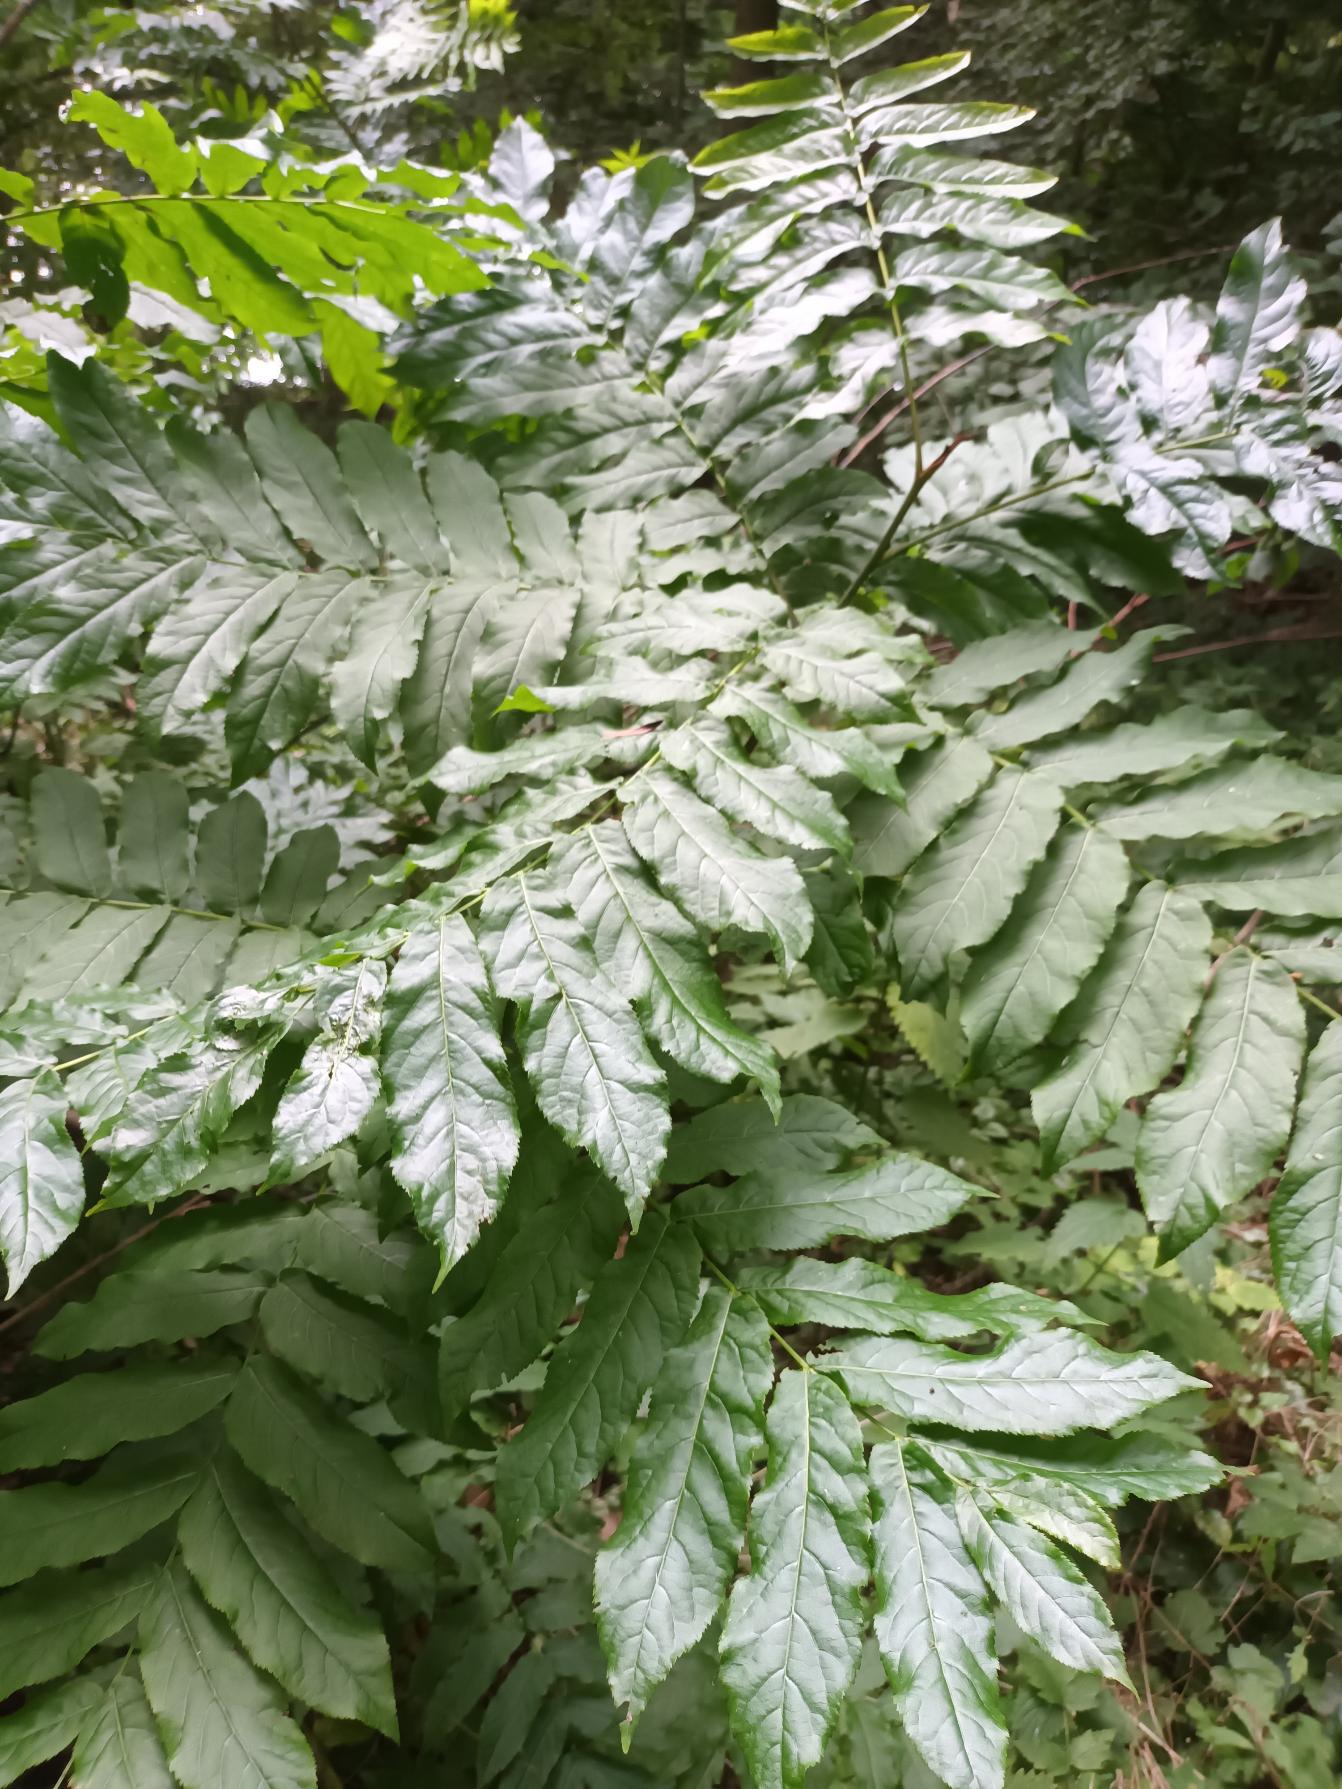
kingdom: Plantae
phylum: Tracheophyta
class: Magnoliopsida
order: Fagales
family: Juglandaceae
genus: Pterocarya
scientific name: Pterocarya fraxinifolia
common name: Kaukasisk vingevalnød
